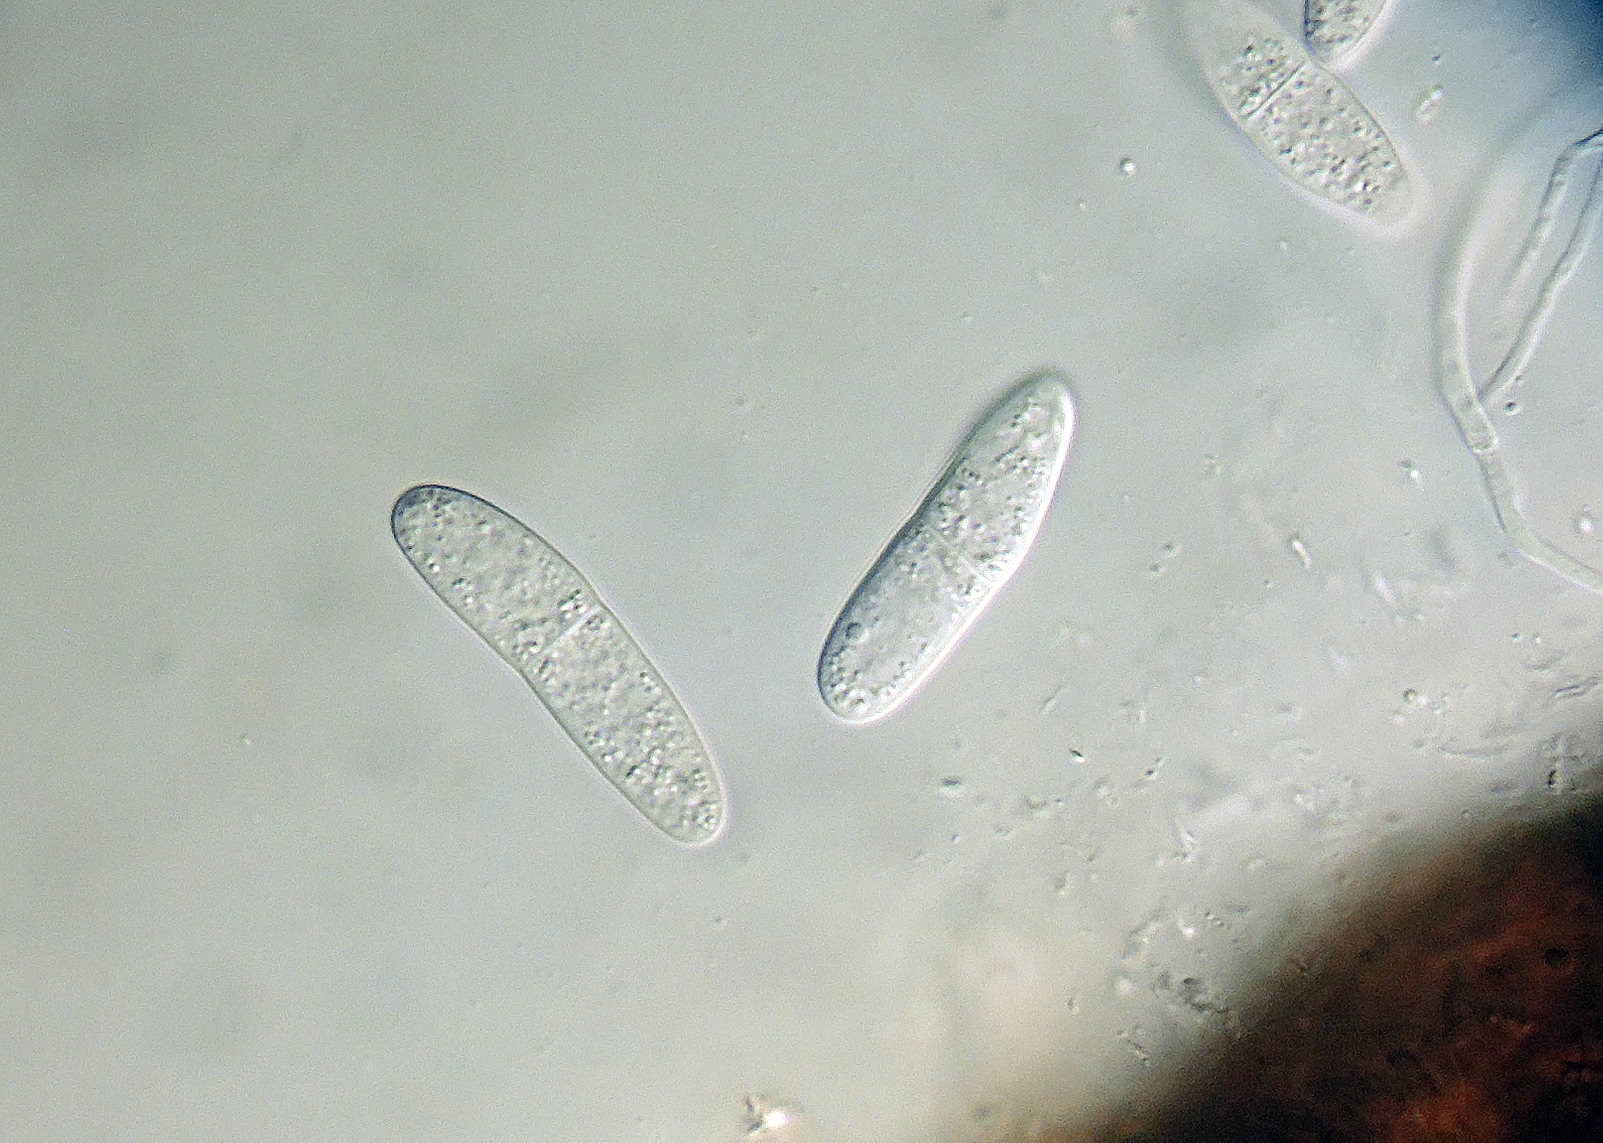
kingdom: Fungi
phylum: Ascomycota
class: Dothideomycetes
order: Pleosporales
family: Didymellaceae
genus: Ascochyta
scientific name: Ascochyta rhodesii
